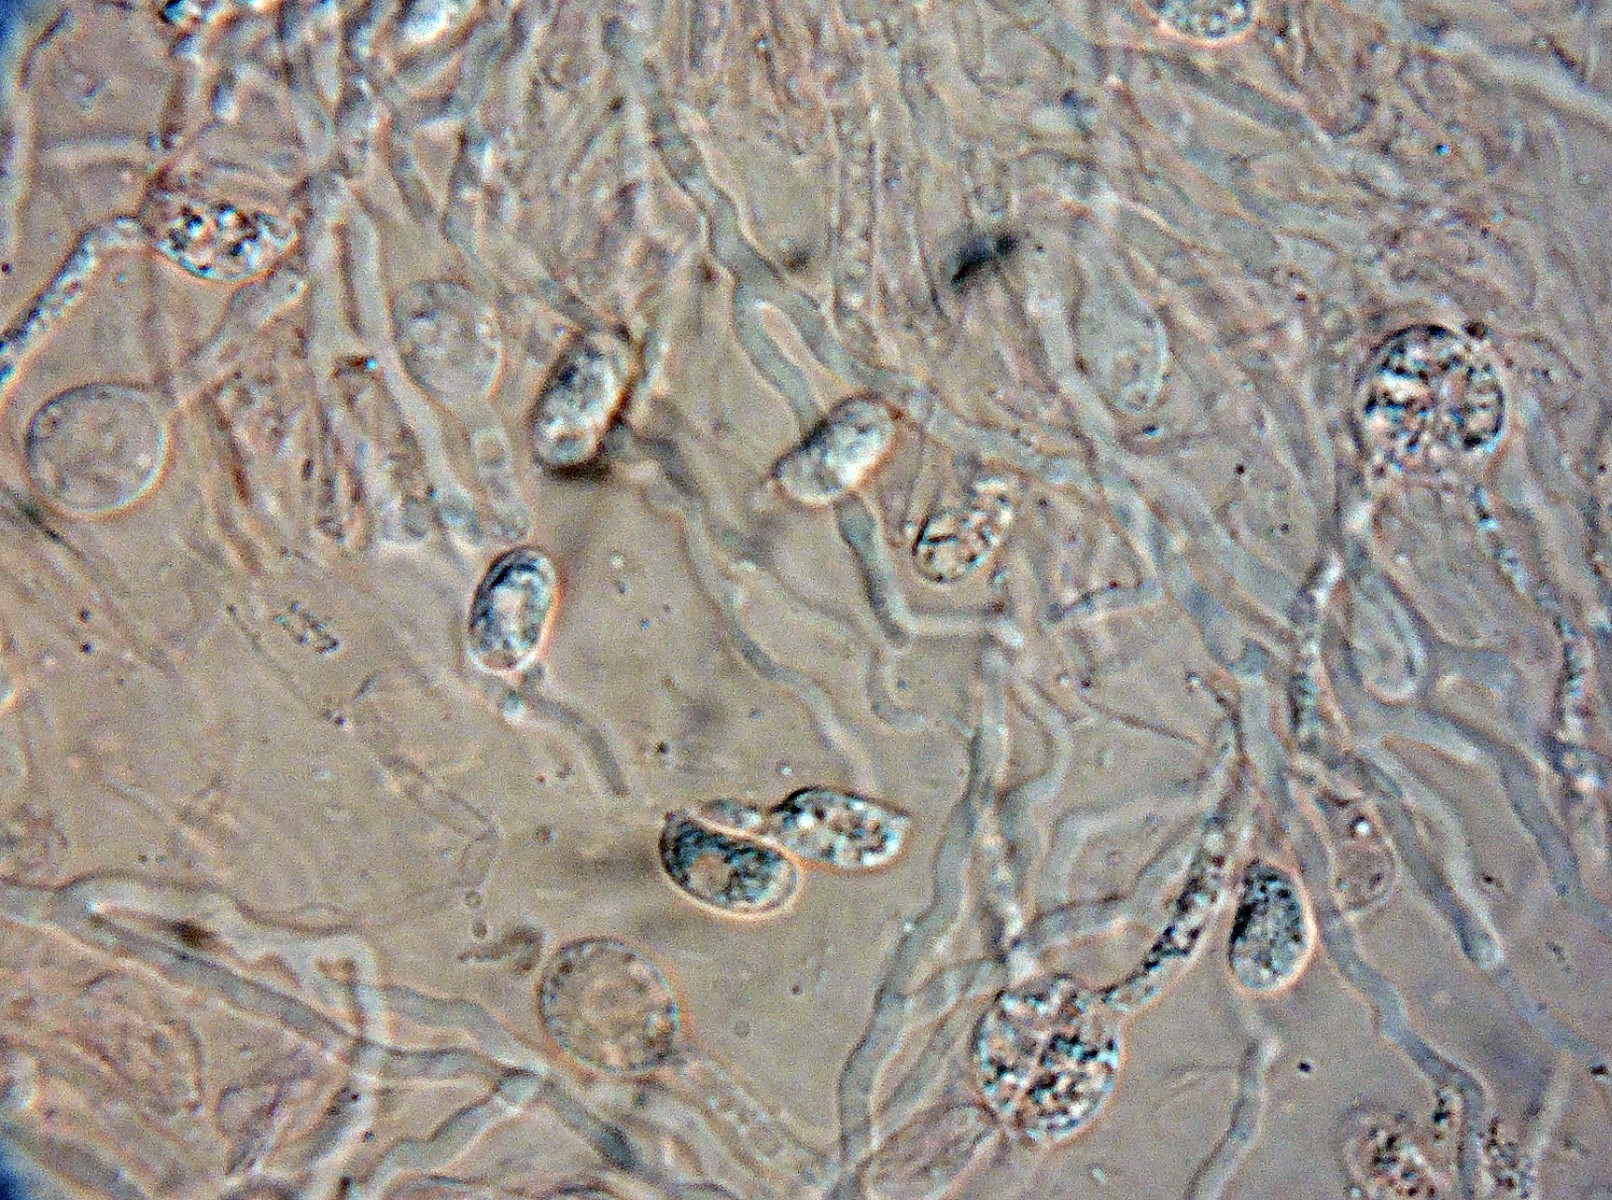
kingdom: Fungi
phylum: Basidiomycota
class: Agaricomycetes
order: Auriculariales
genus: Stypella
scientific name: Stypella crystallina
